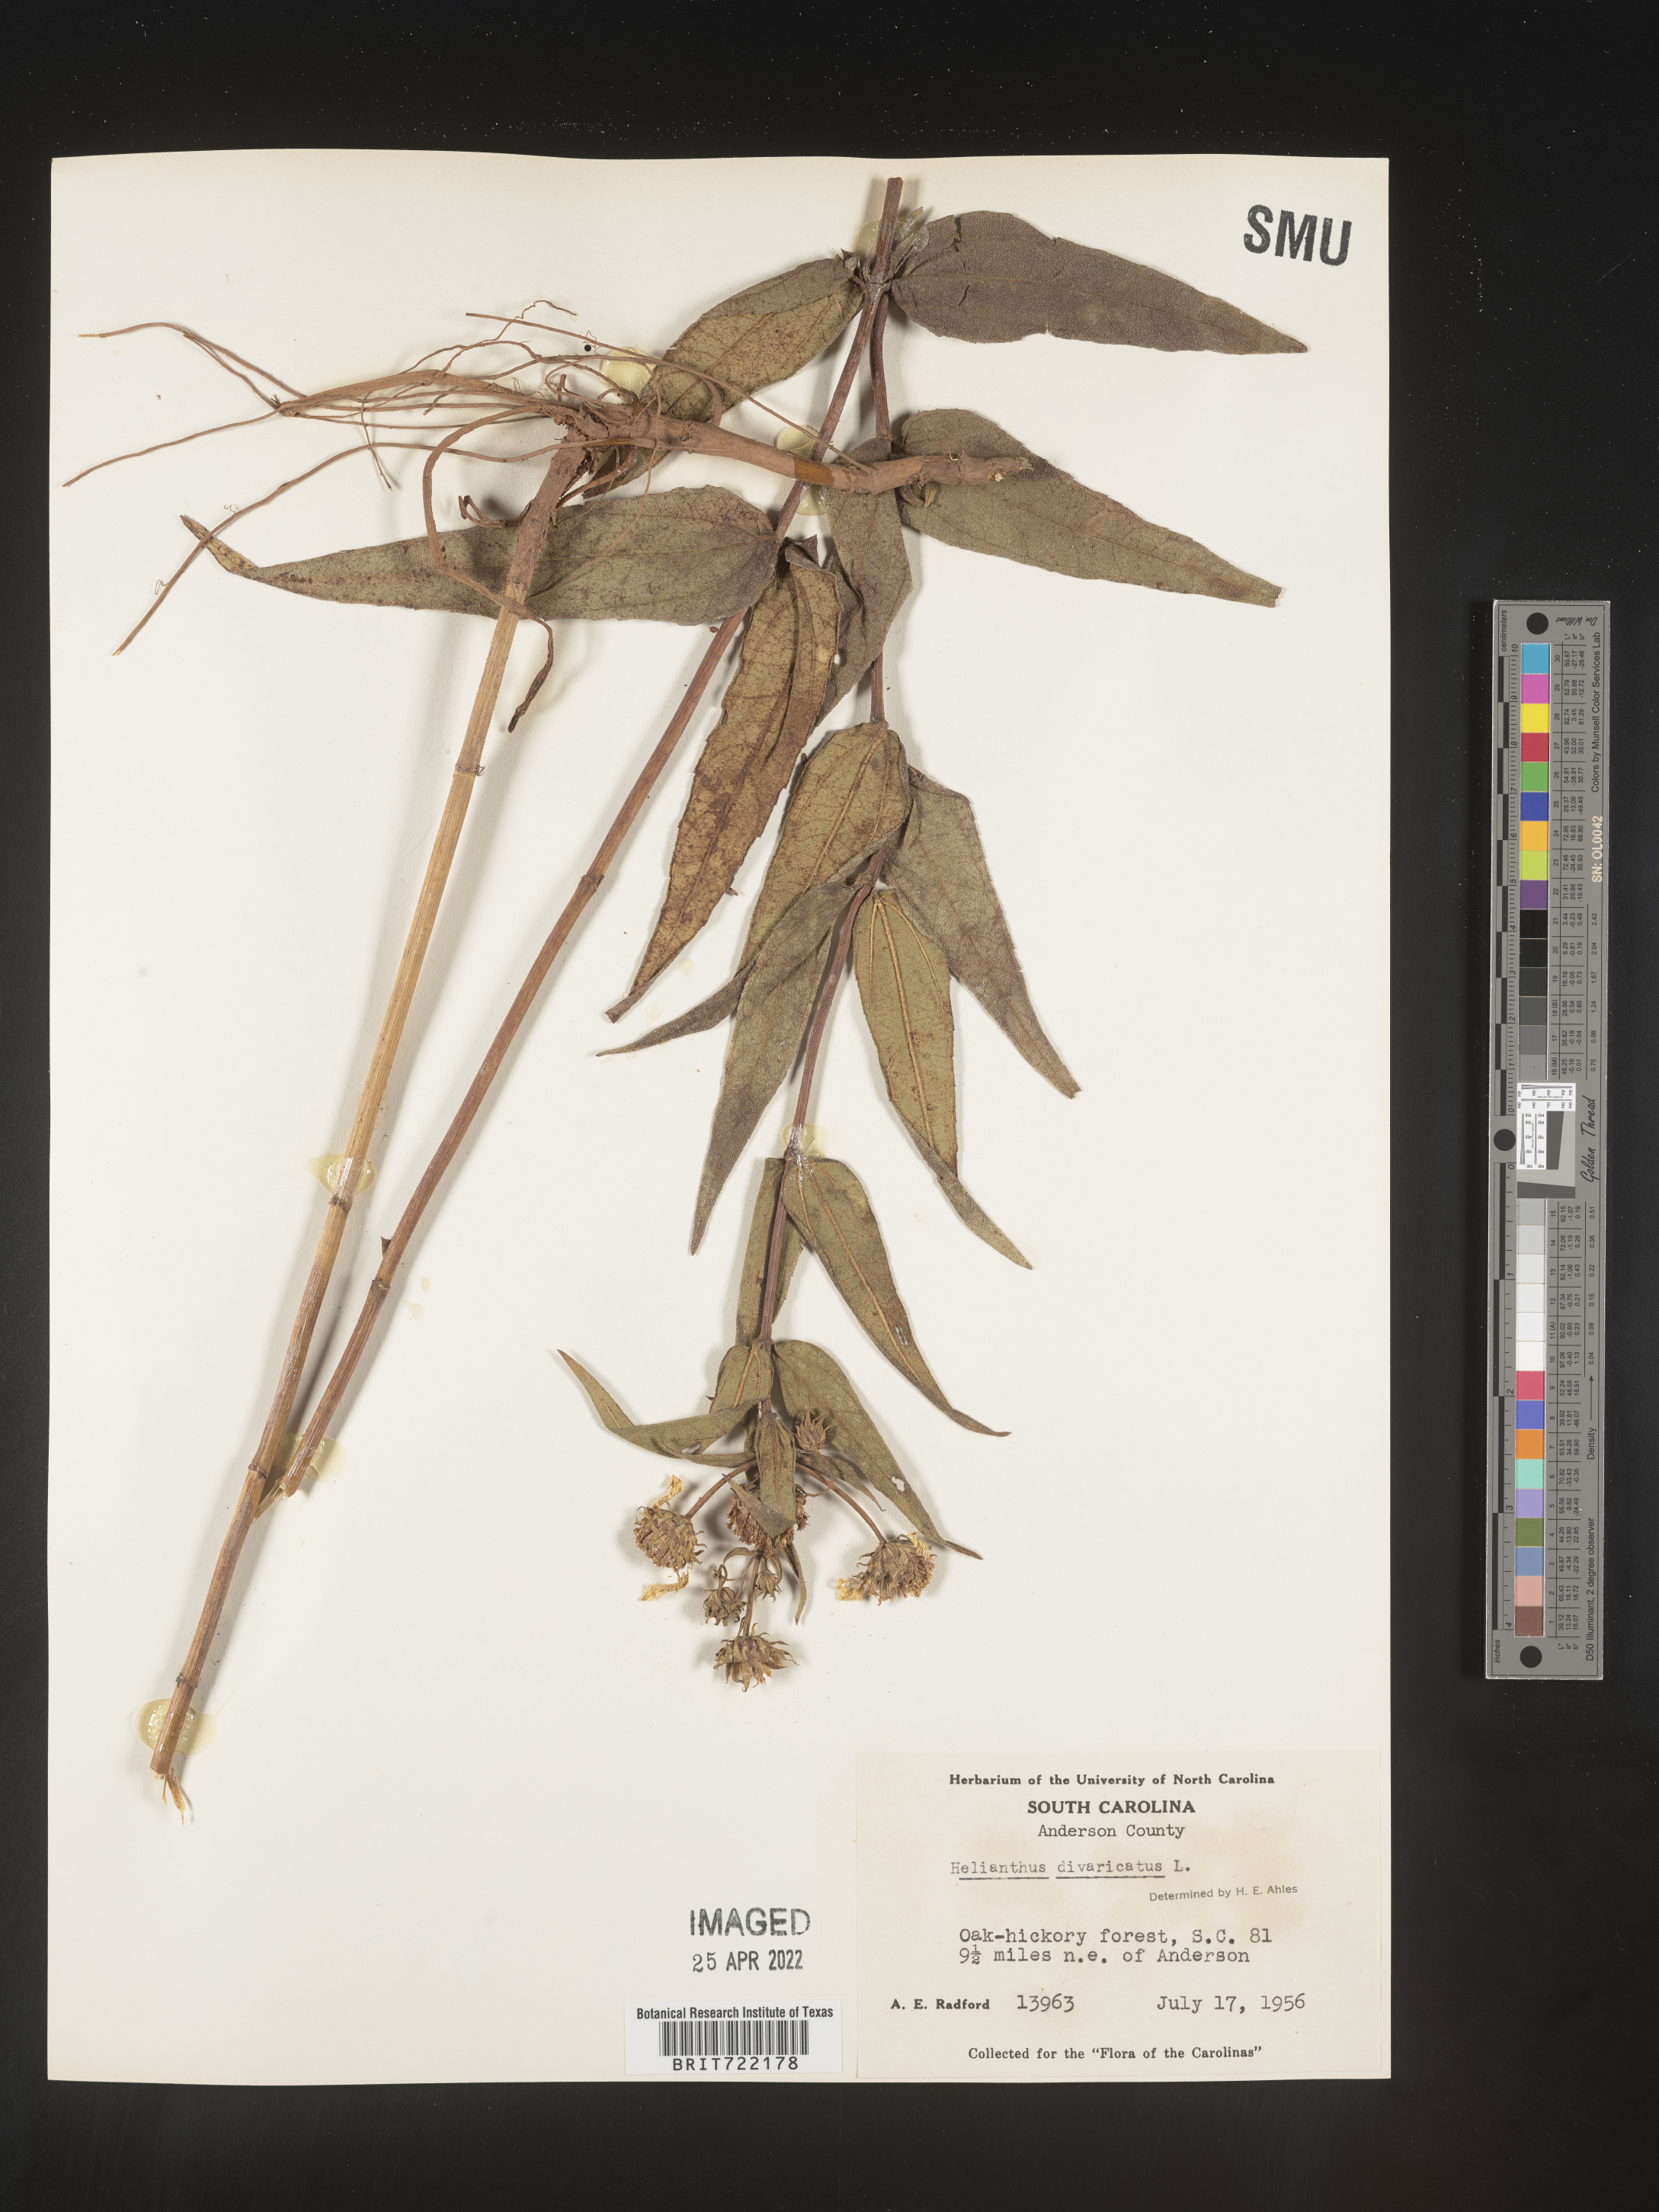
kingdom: Plantae
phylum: Tracheophyta
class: Magnoliopsida
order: Asterales
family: Asteraceae
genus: Helianthus
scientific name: Helianthus divaricatus
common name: Divergent sunflower
